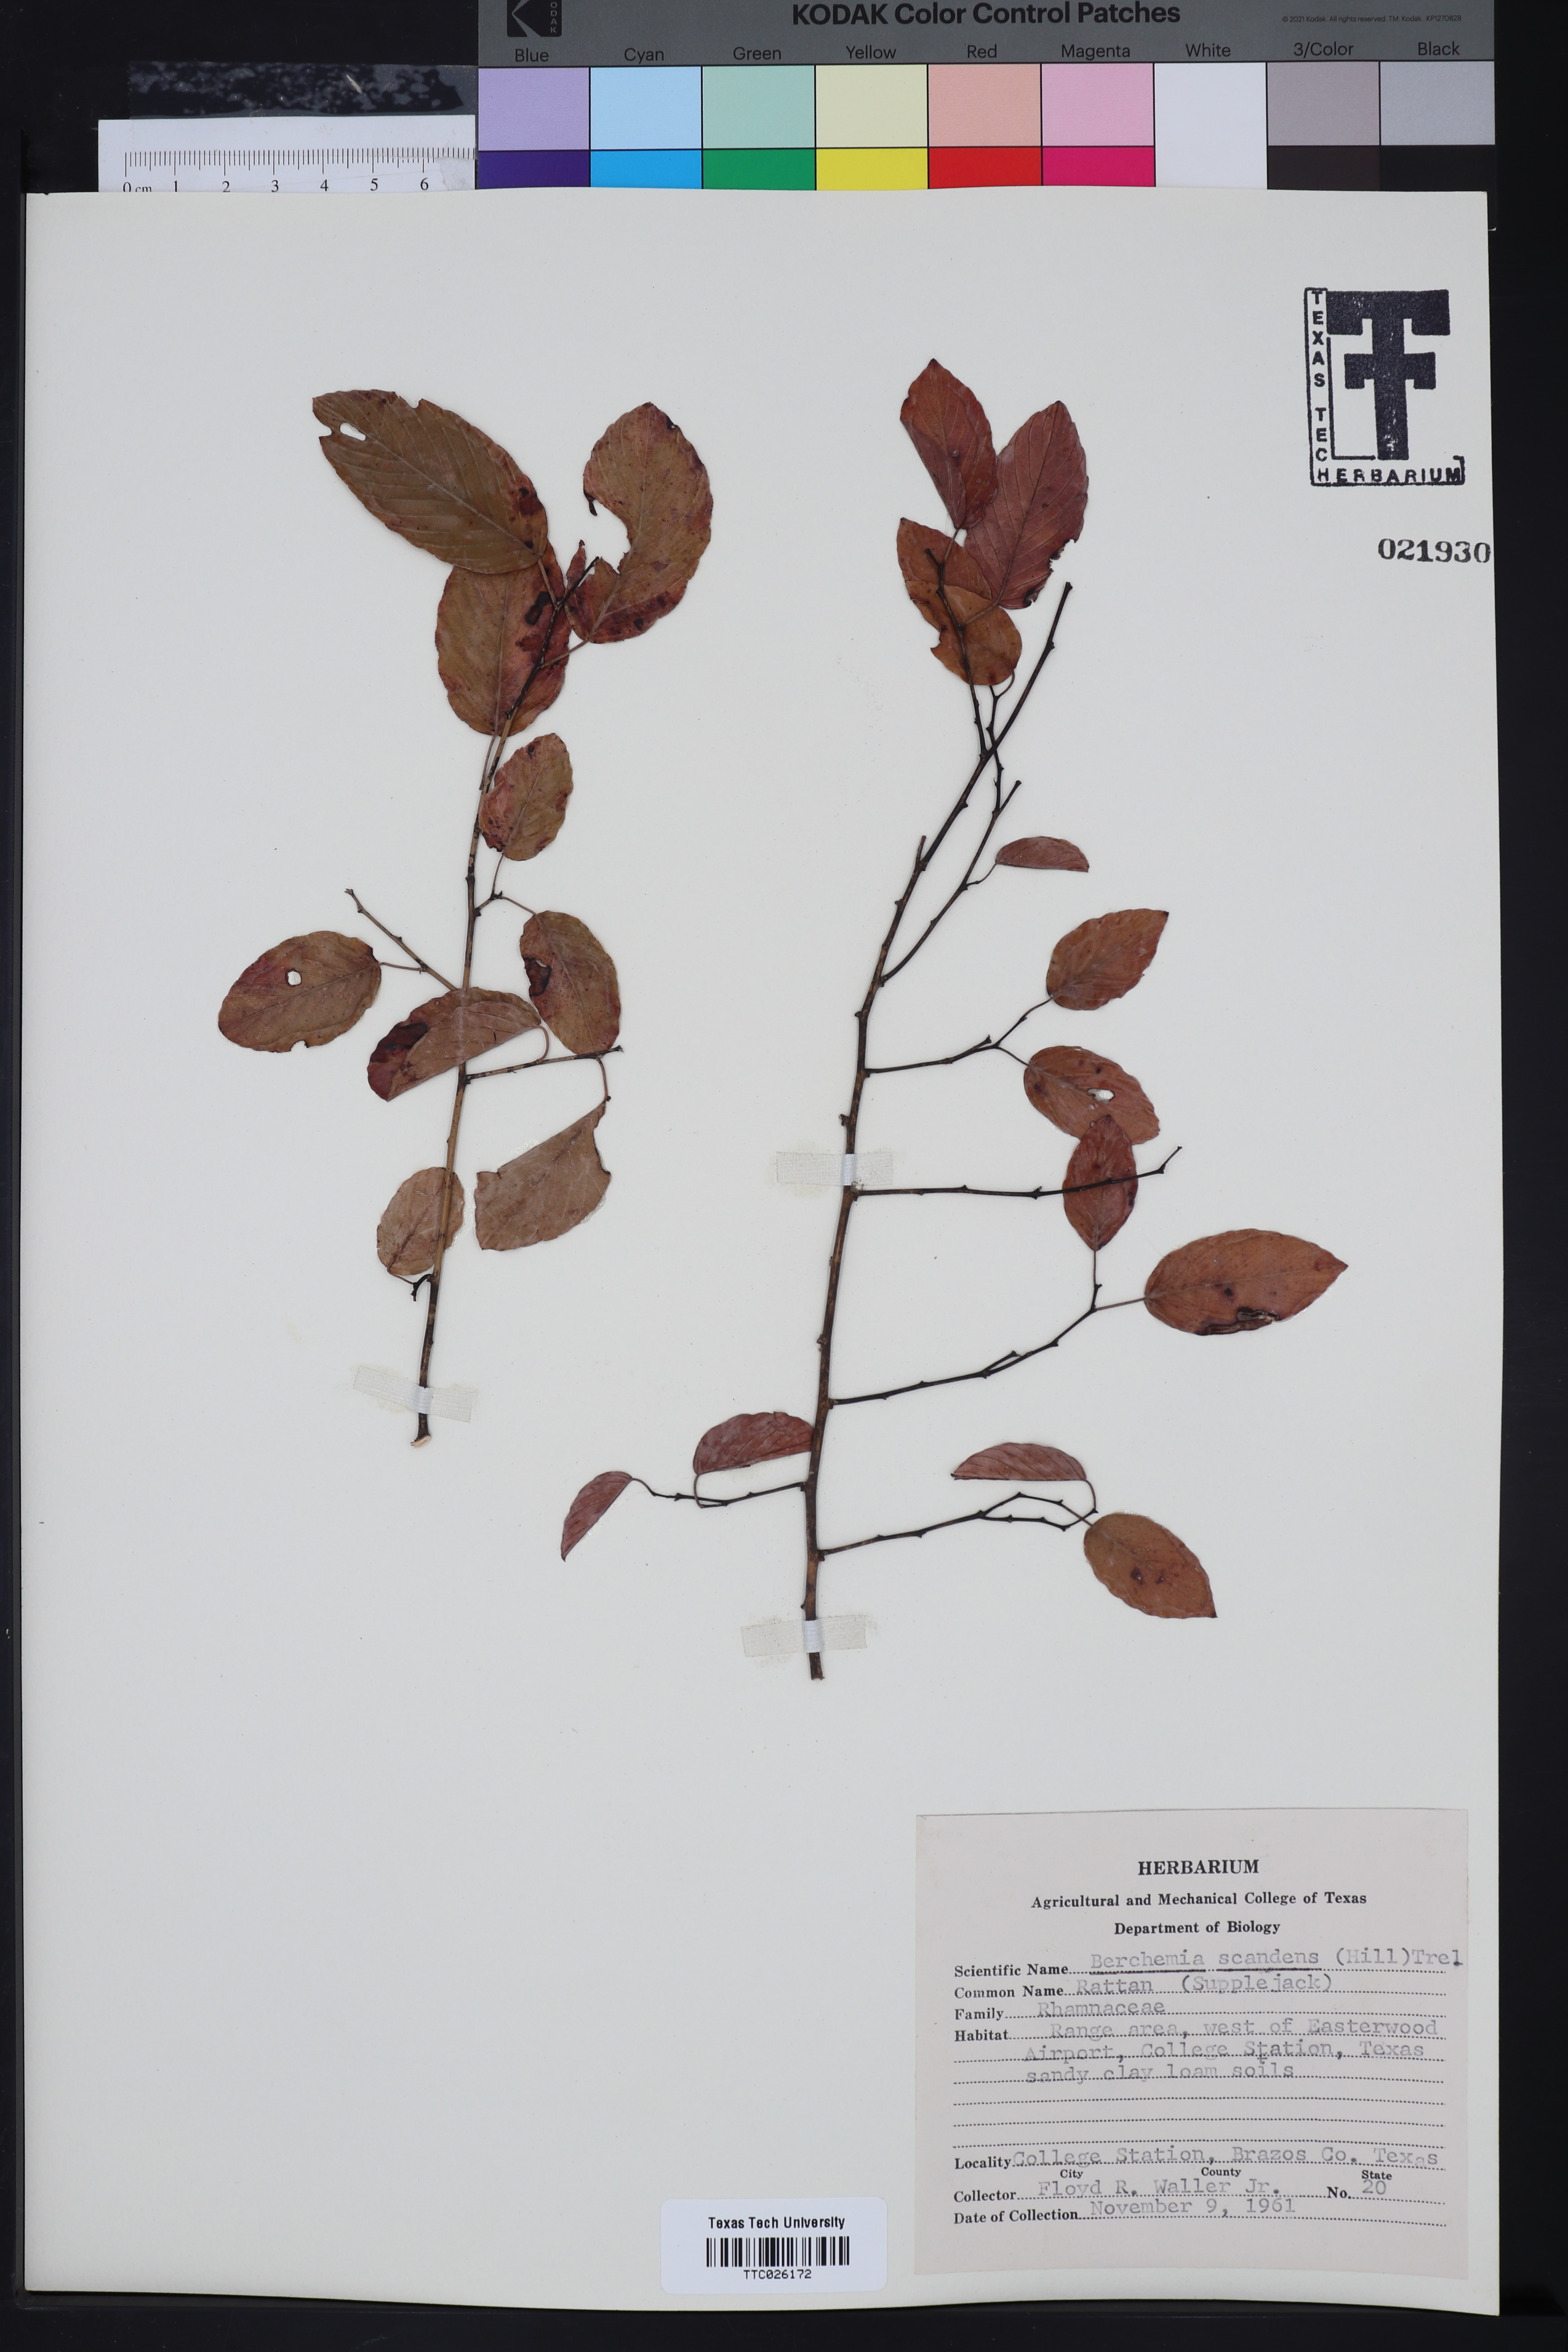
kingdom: Plantae
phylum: Tracheophyta
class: Magnoliopsida
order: Rosales
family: Rhamnaceae
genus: Berchemia
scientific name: Berchemia scandens
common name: Supplejack
